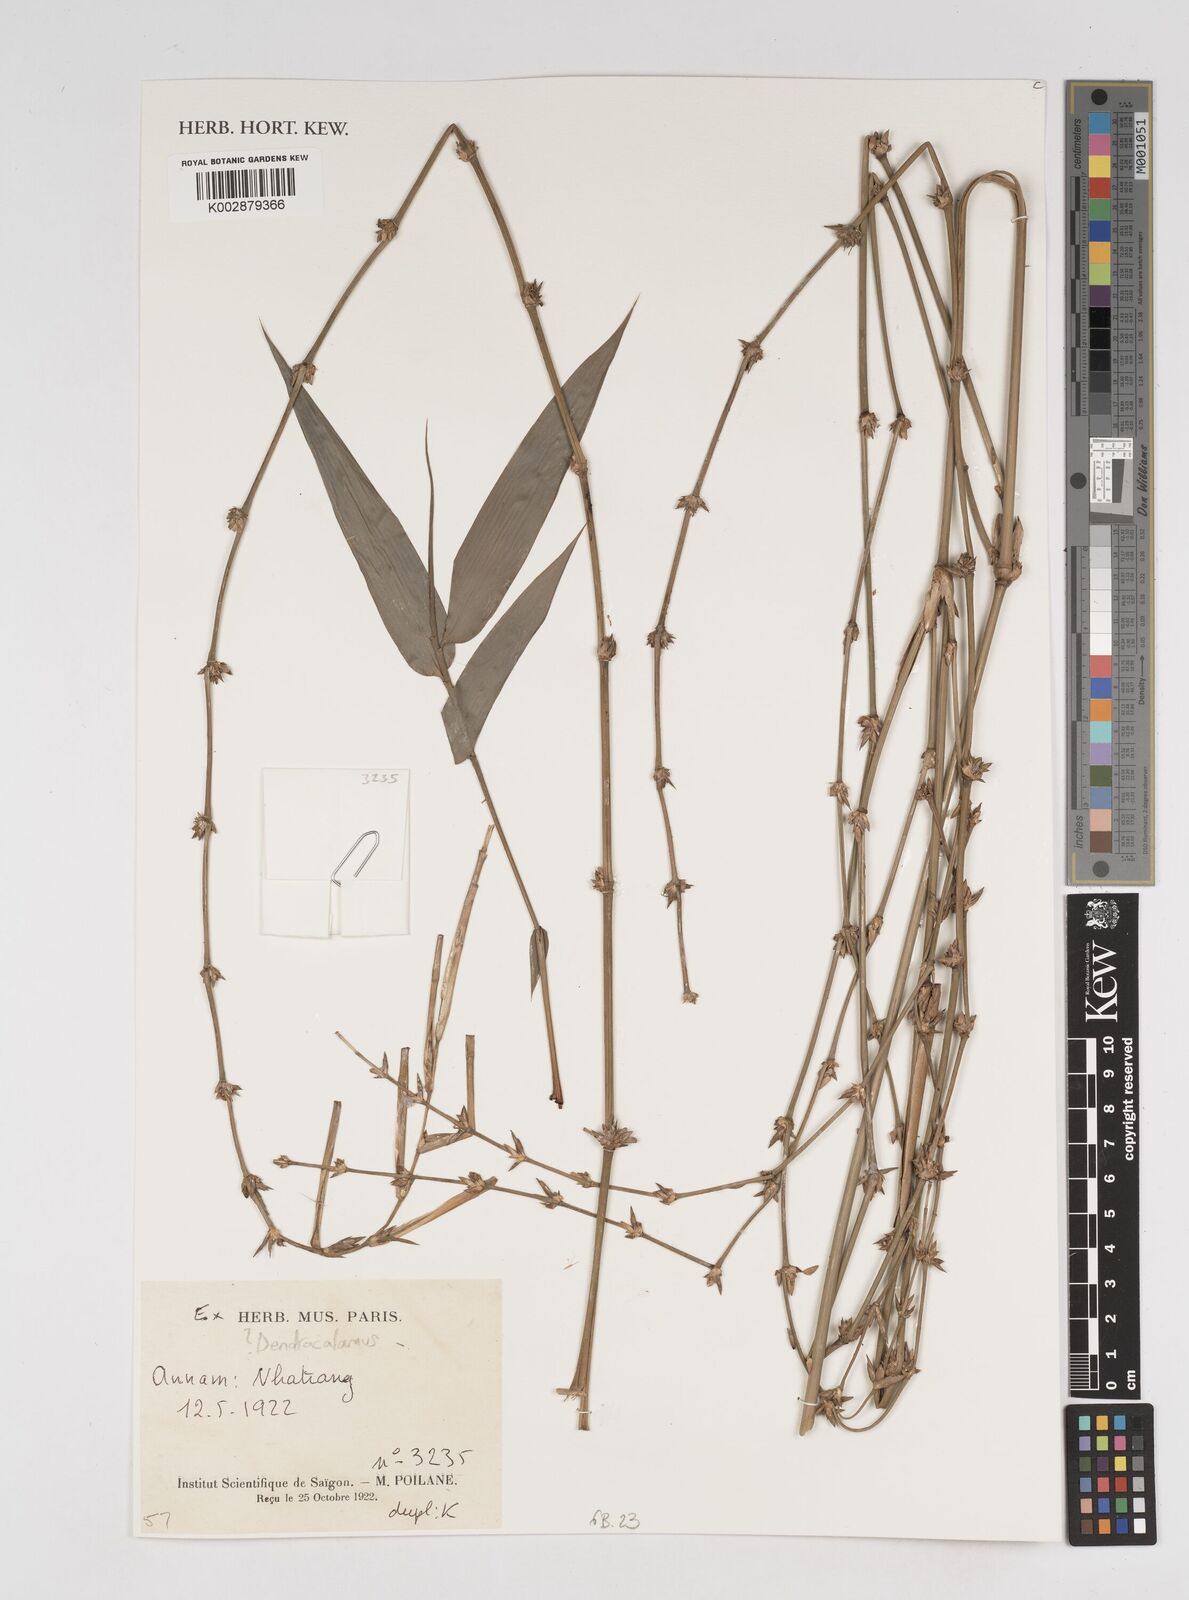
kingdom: Plantae
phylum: Tracheophyta
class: Liliopsida
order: Poales
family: Poaceae
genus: Dendrocalamus
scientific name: Dendrocalamus
